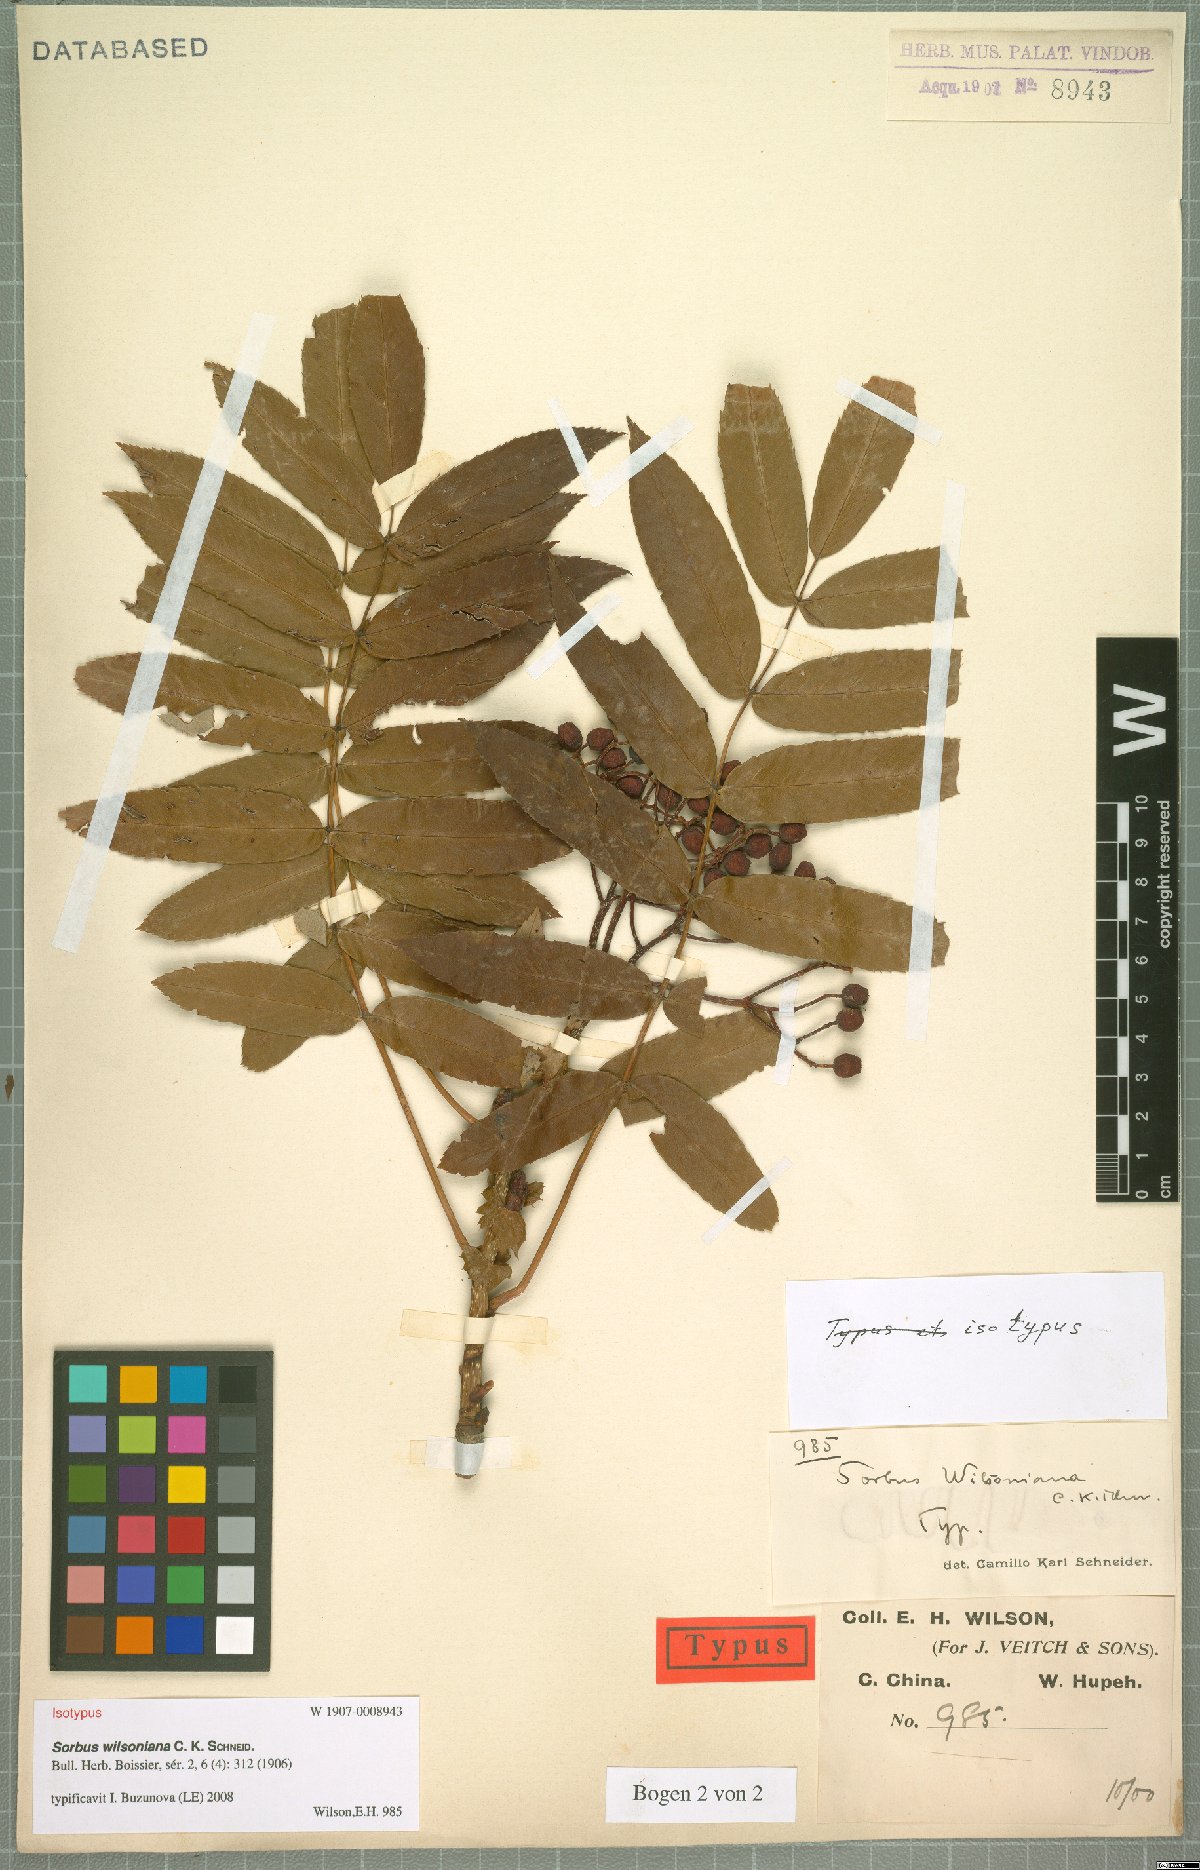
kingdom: Plantae
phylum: Tracheophyta
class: Magnoliopsida
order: Rosales
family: Rosaceae
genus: Sorbus
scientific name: Sorbus wilsoniana
